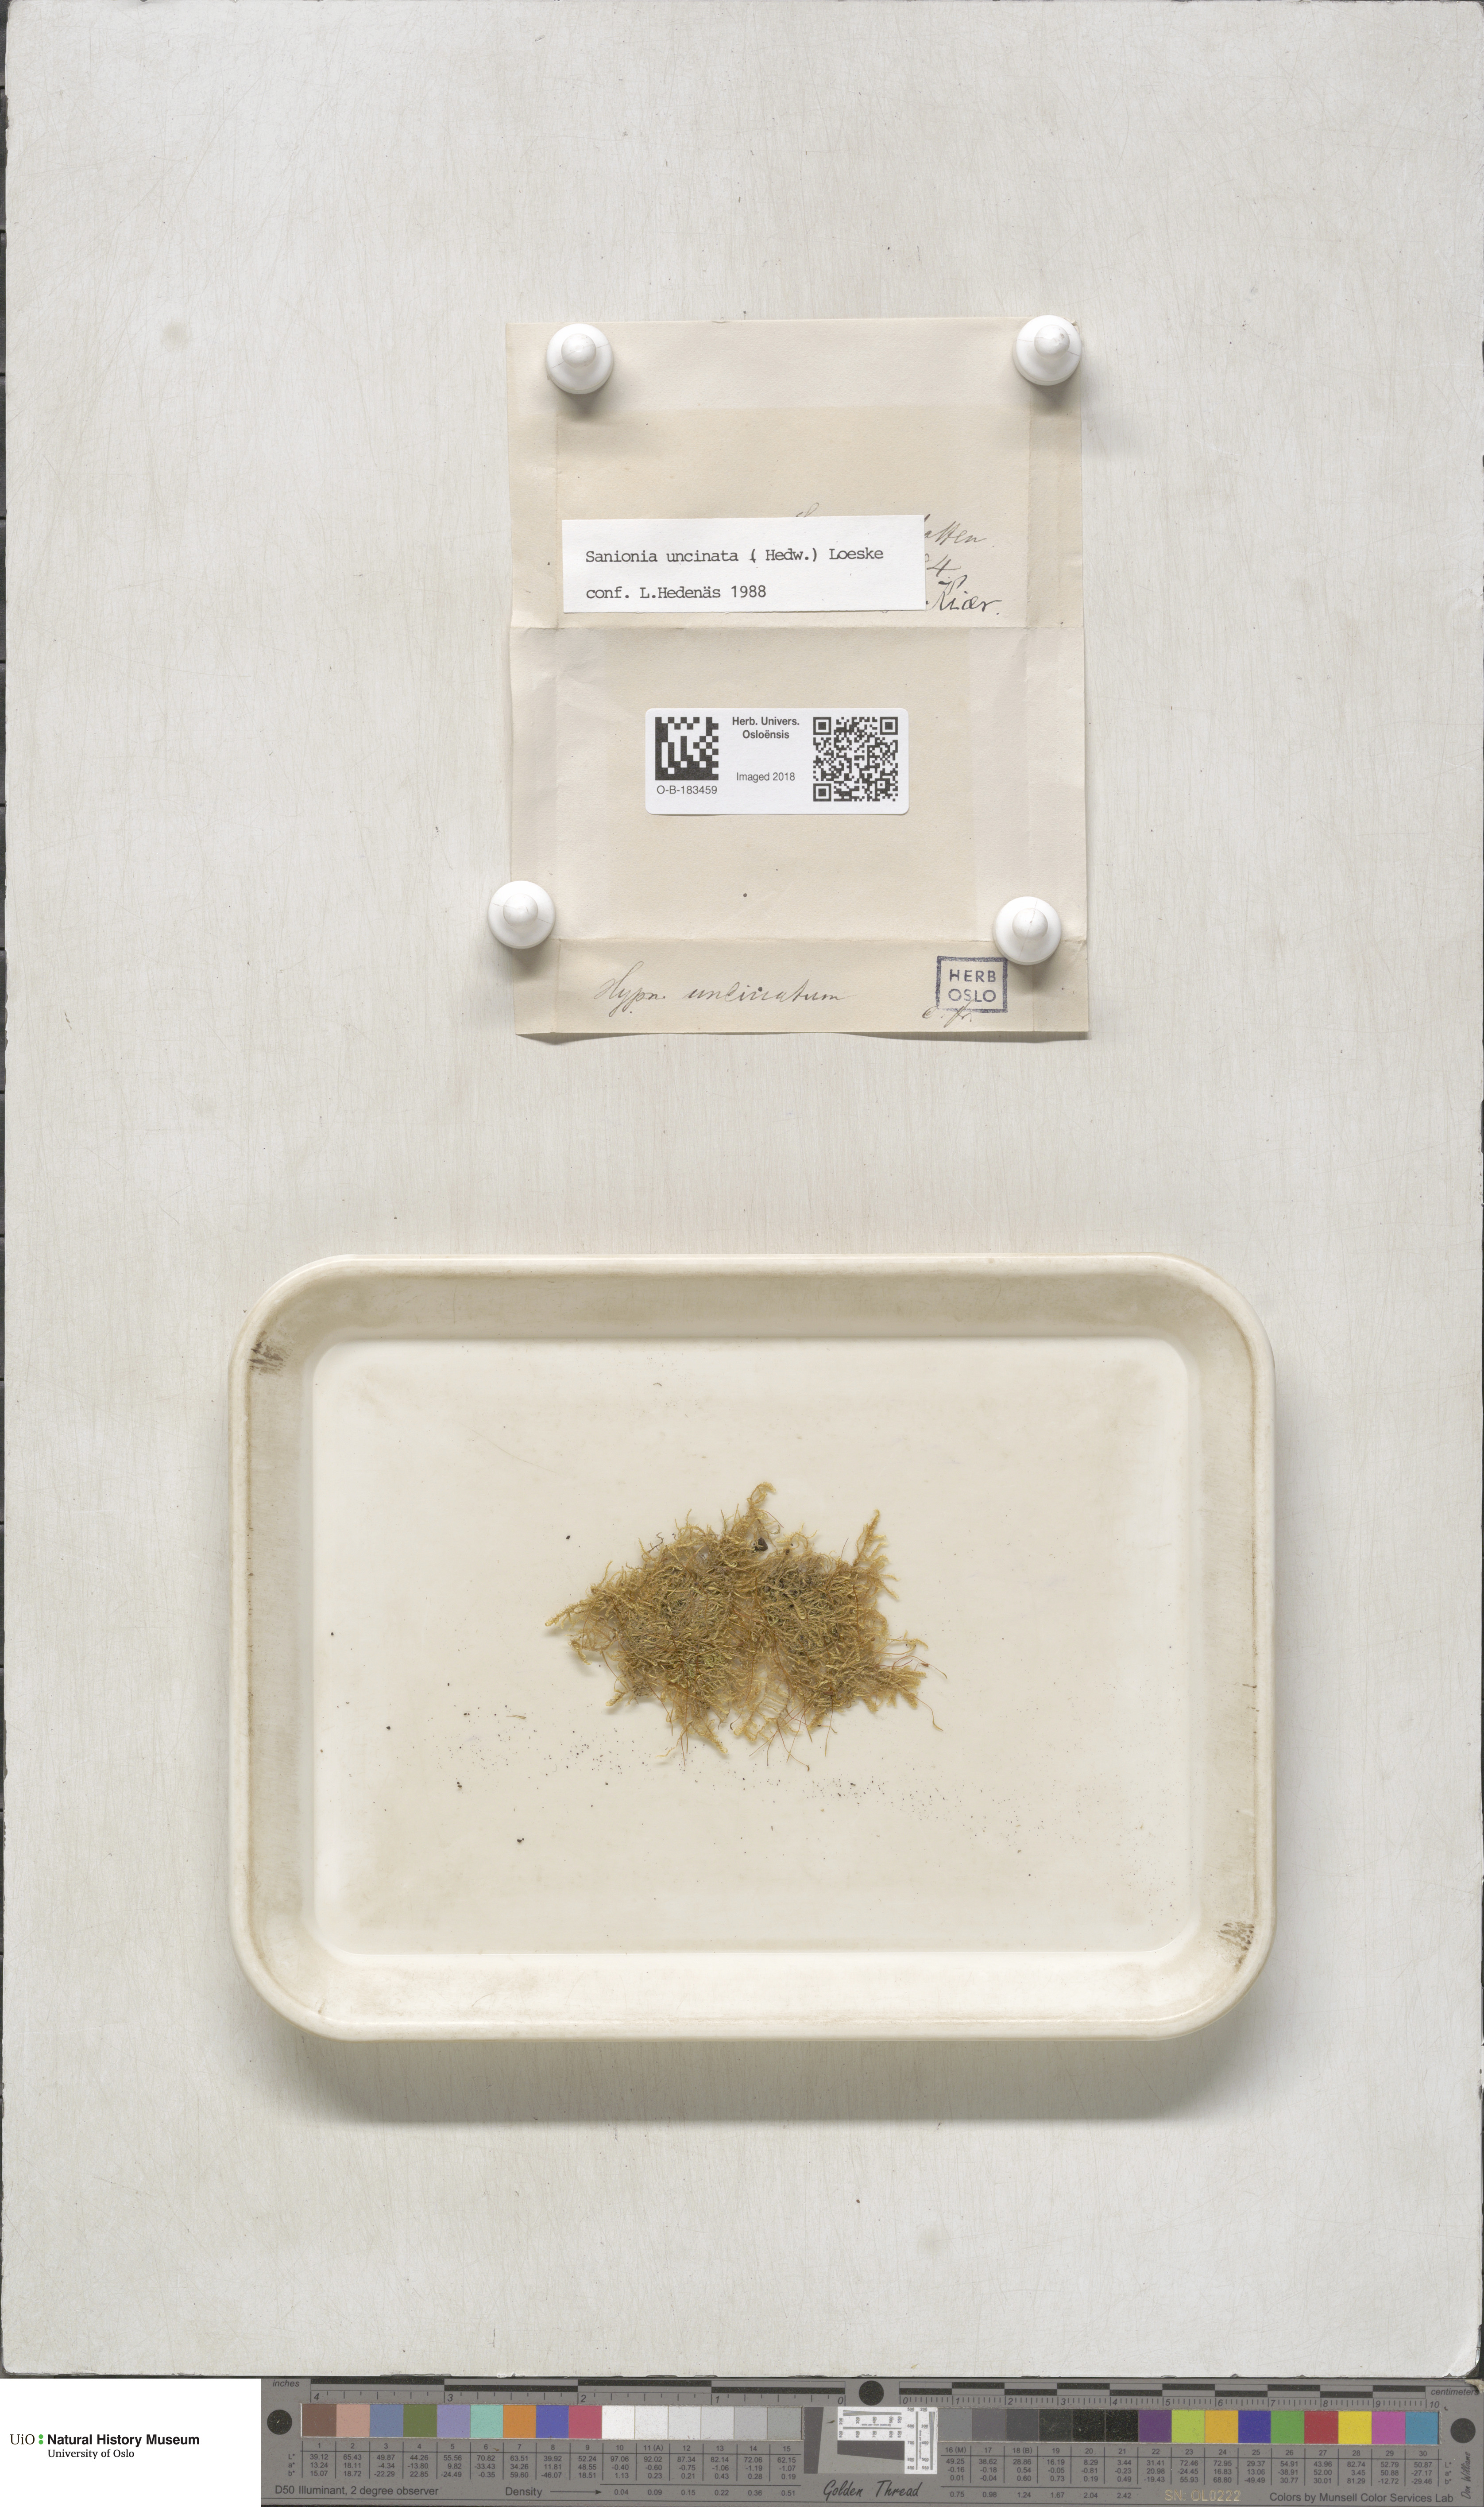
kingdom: Plantae
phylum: Bryophyta
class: Bryopsida
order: Hypnales
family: Scorpidiaceae
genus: Sanionia
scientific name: Sanionia uncinata
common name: Sickle moss
